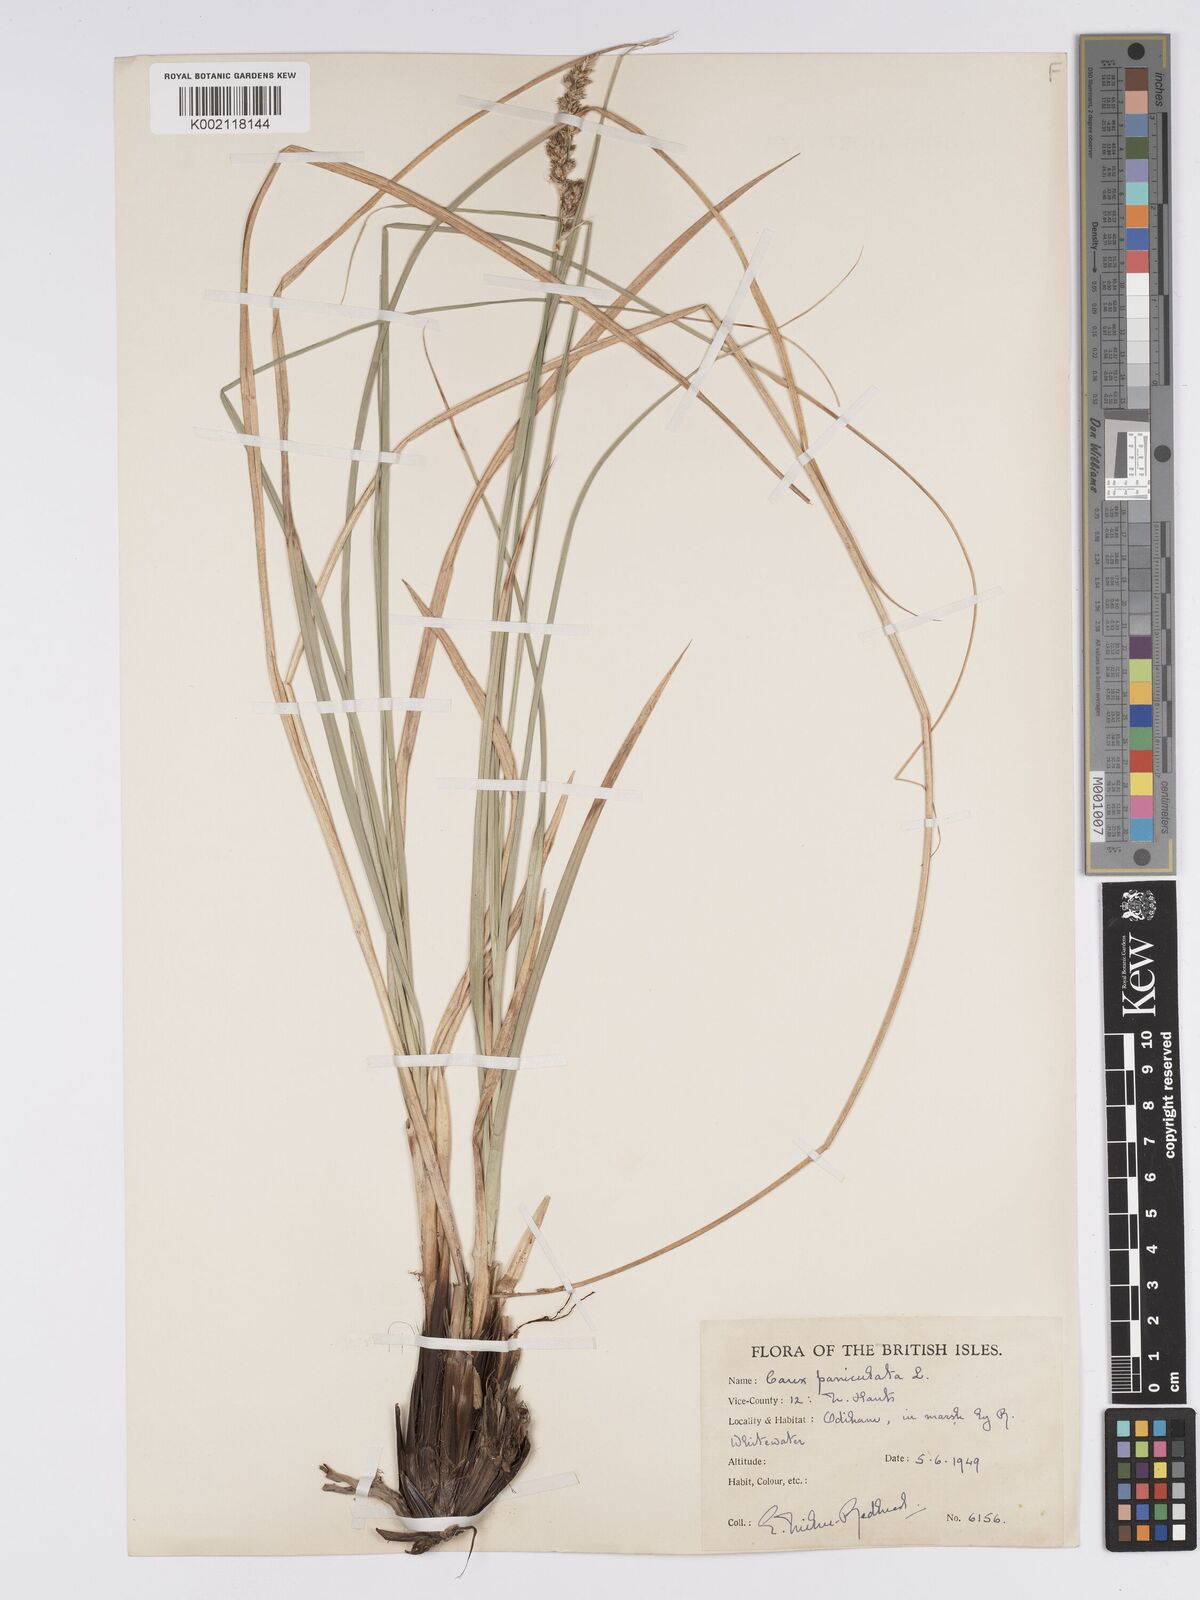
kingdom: Plantae
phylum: Tracheophyta
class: Liliopsida
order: Poales
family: Cyperaceae
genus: Carex
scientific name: Carex paniculata
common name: Greater tussock-sedge
